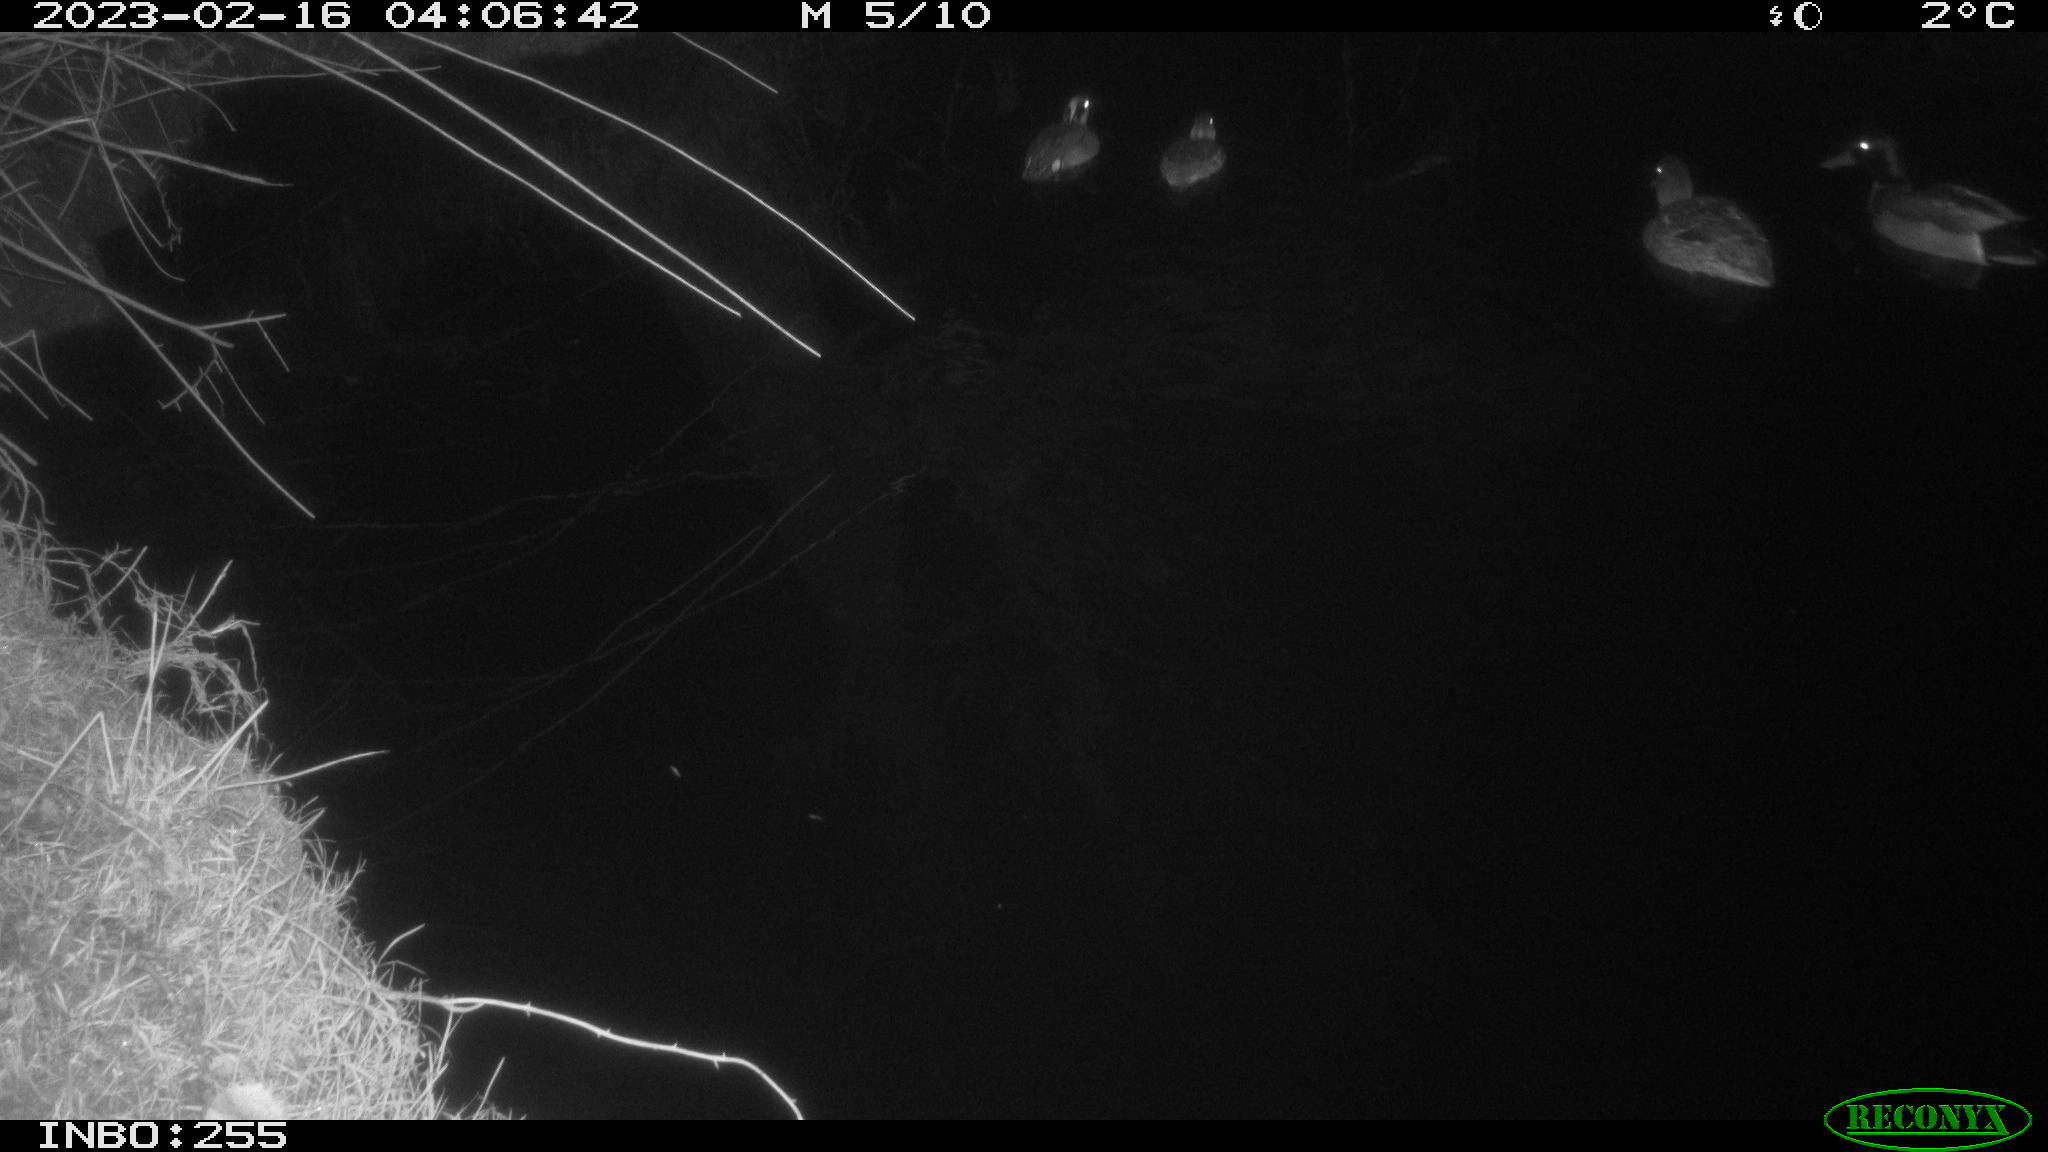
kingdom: Animalia
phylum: Chordata
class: Aves
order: Anseriformes
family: Anatidae
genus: Anas
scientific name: Anas
